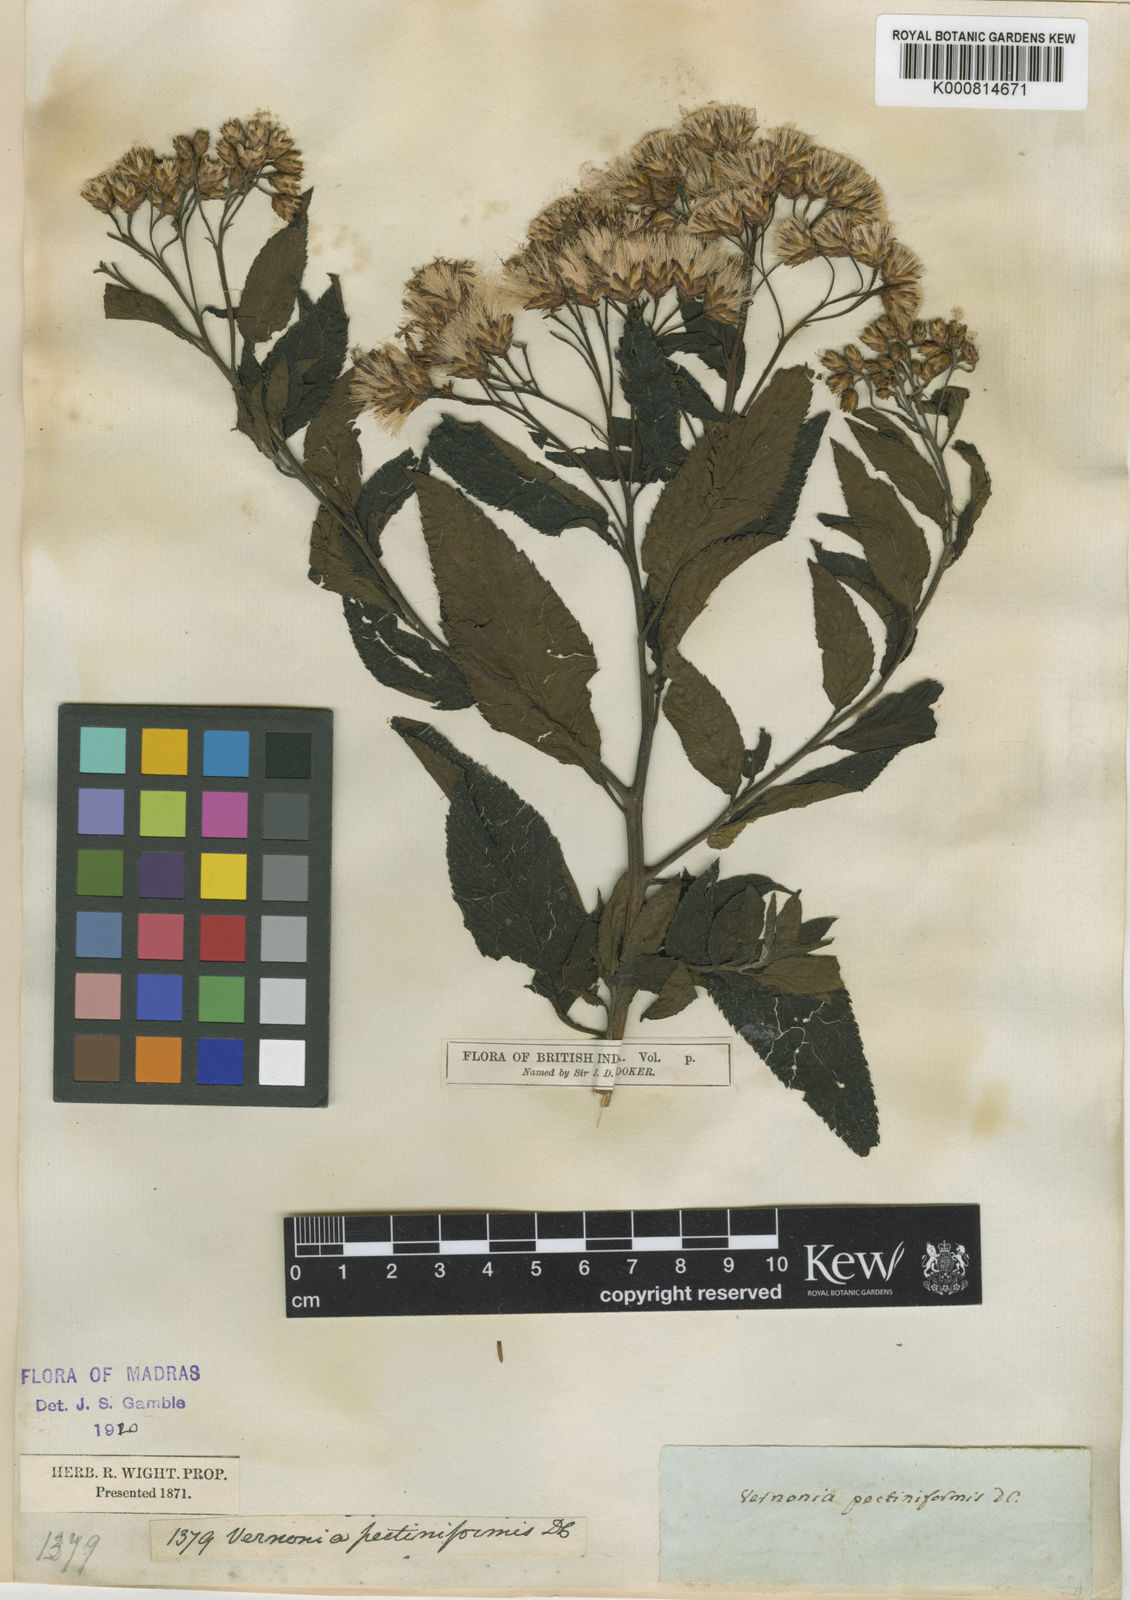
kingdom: Plantae
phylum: Tracheophyta
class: Magnoliopsida
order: Asterales
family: Asteraceae
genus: Gymnanthemum
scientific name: Gymnanthemum pectiniforme
